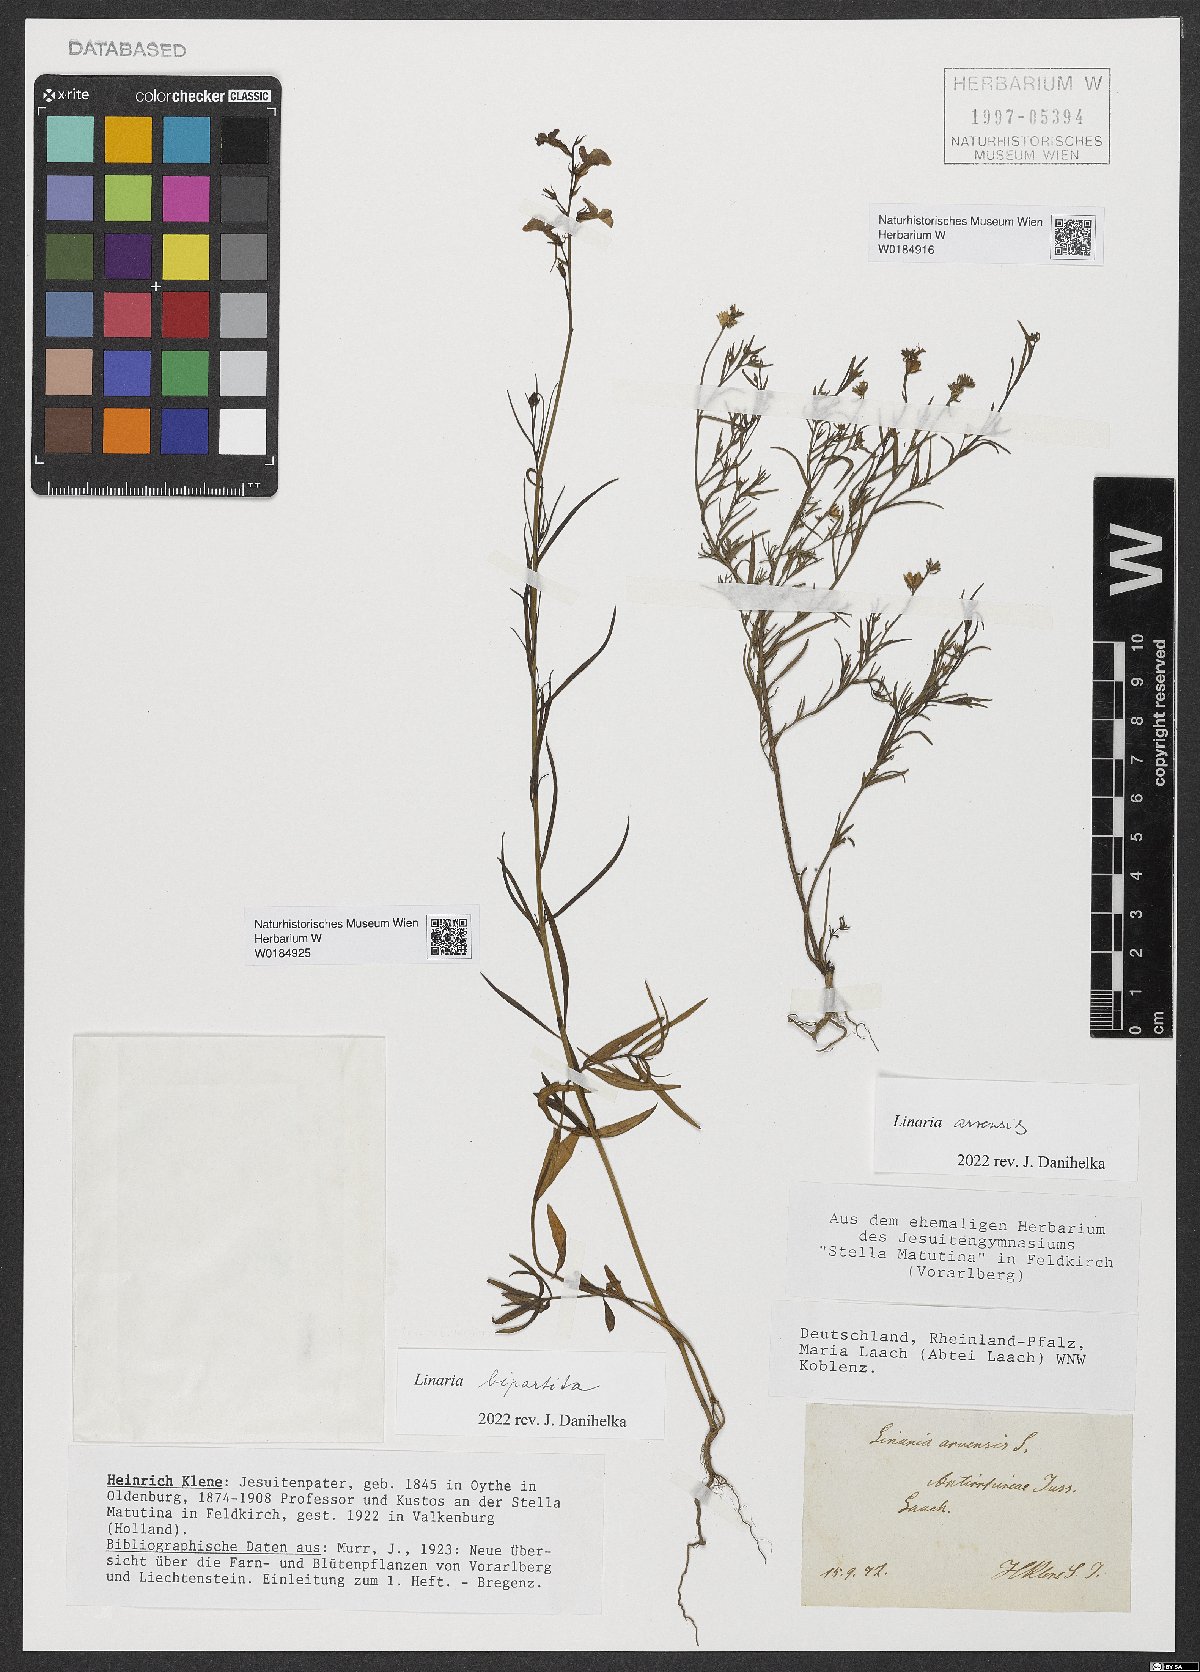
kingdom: Plantae
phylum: Tracheophyta
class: Magnoliopsida
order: Lamiales
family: Plantaginaceae
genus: Linaria
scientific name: Linaria incarnata
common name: Annual toadflax
